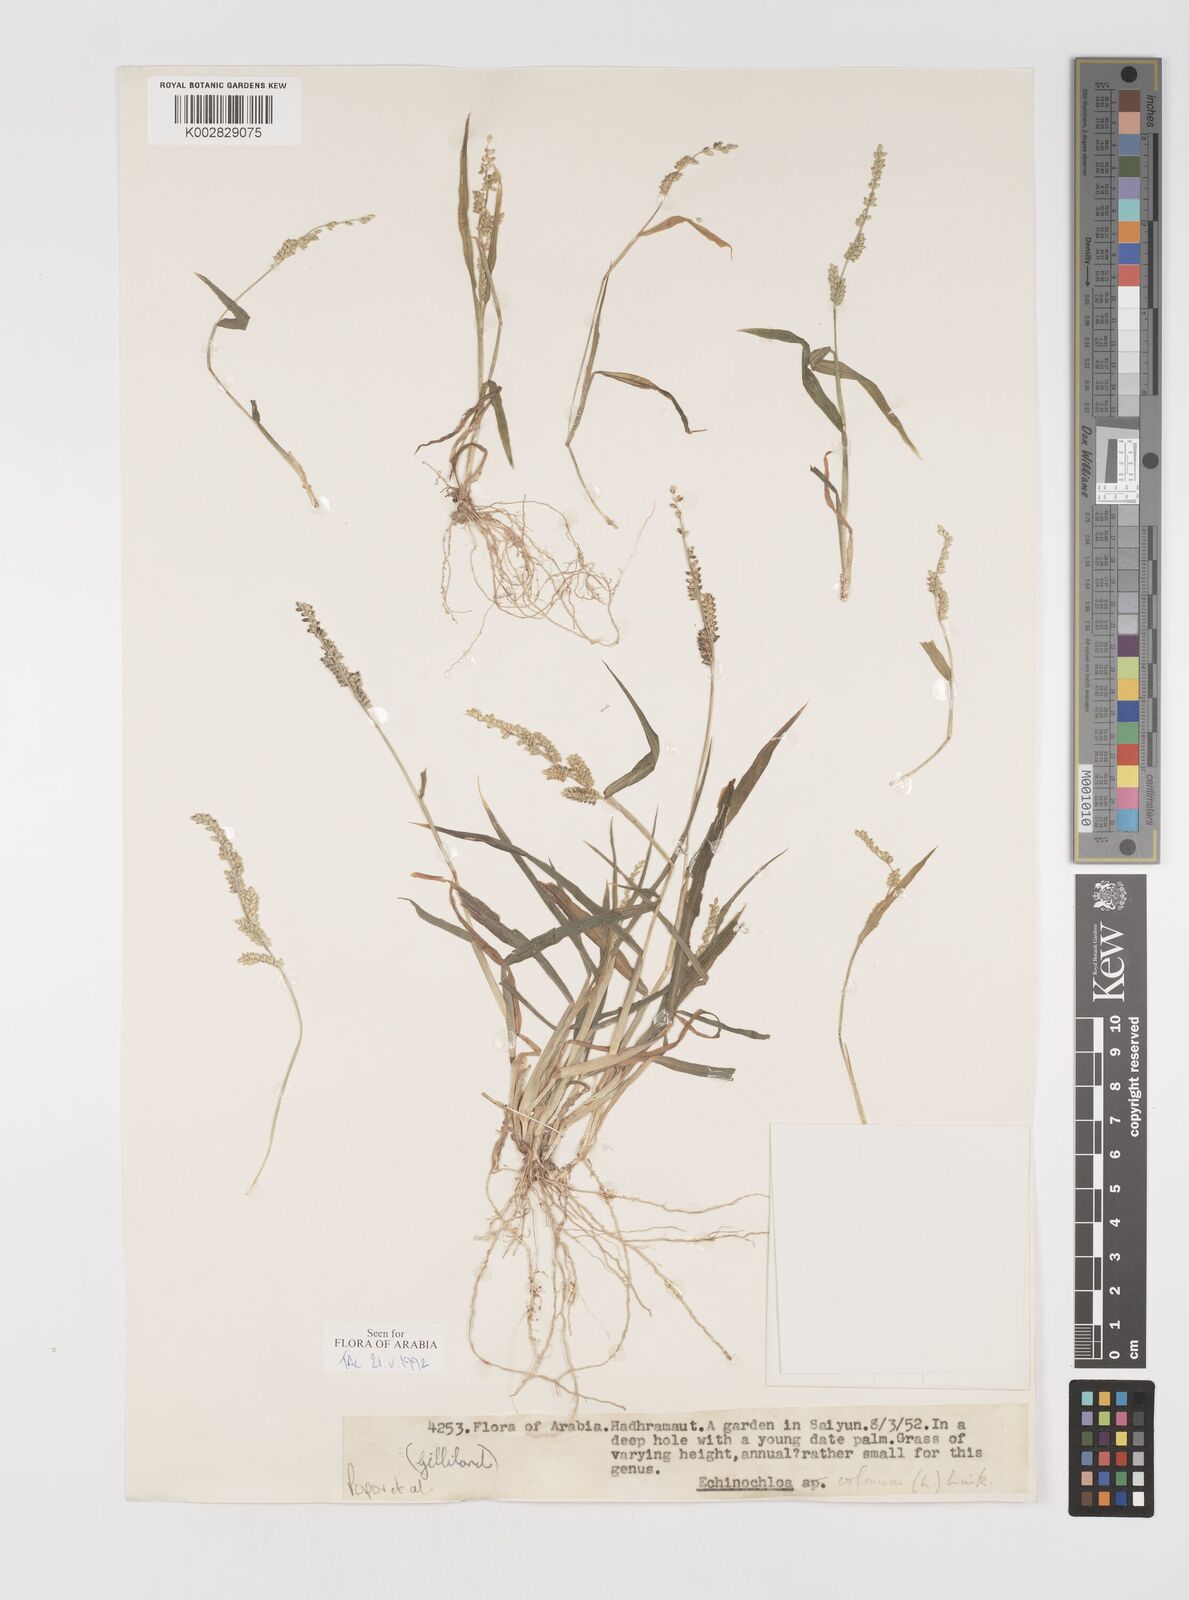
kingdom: Plantae
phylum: Tracheophyta
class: Liliopsida
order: Poales
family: Poaceae
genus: Echinochloa
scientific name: Echinochloa colonum
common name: Jungle rice
